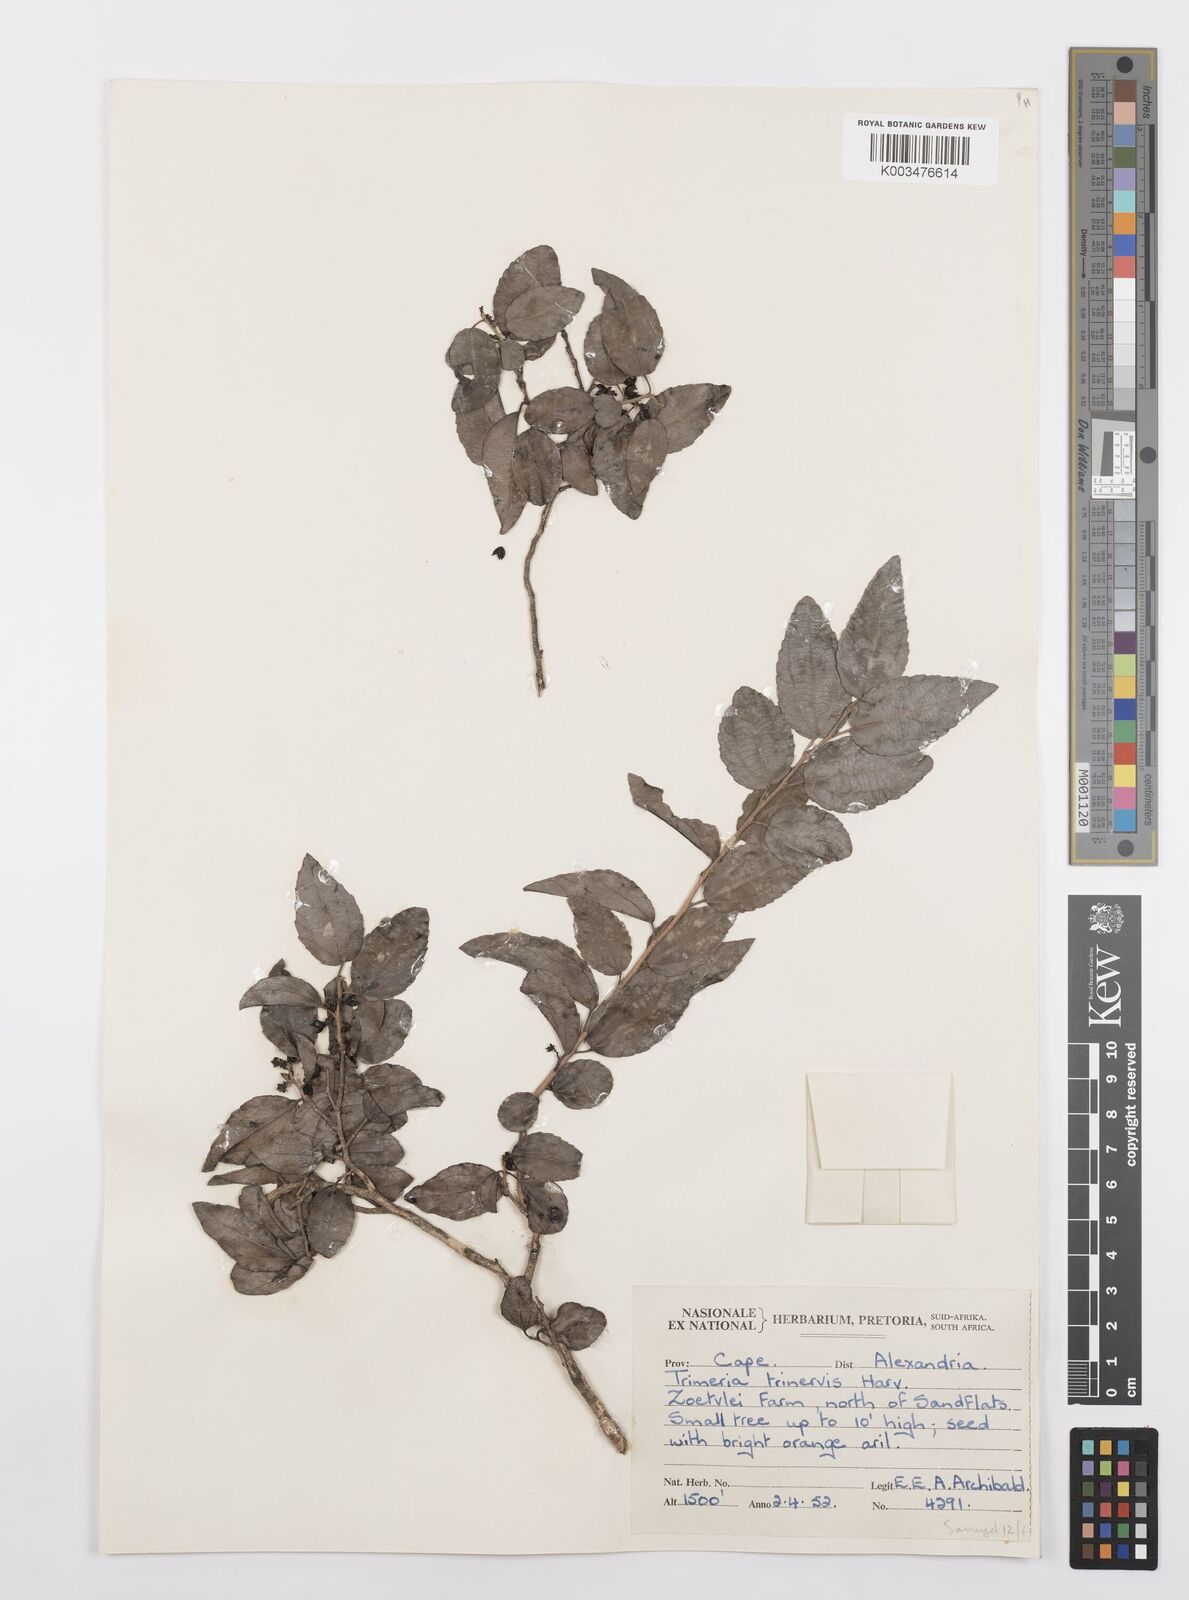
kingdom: Plantae
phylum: Tracheophyta
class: Magnoliopsida
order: Malpighiales
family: Salicaceae
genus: Trimeria
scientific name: Trimeria trinervis
